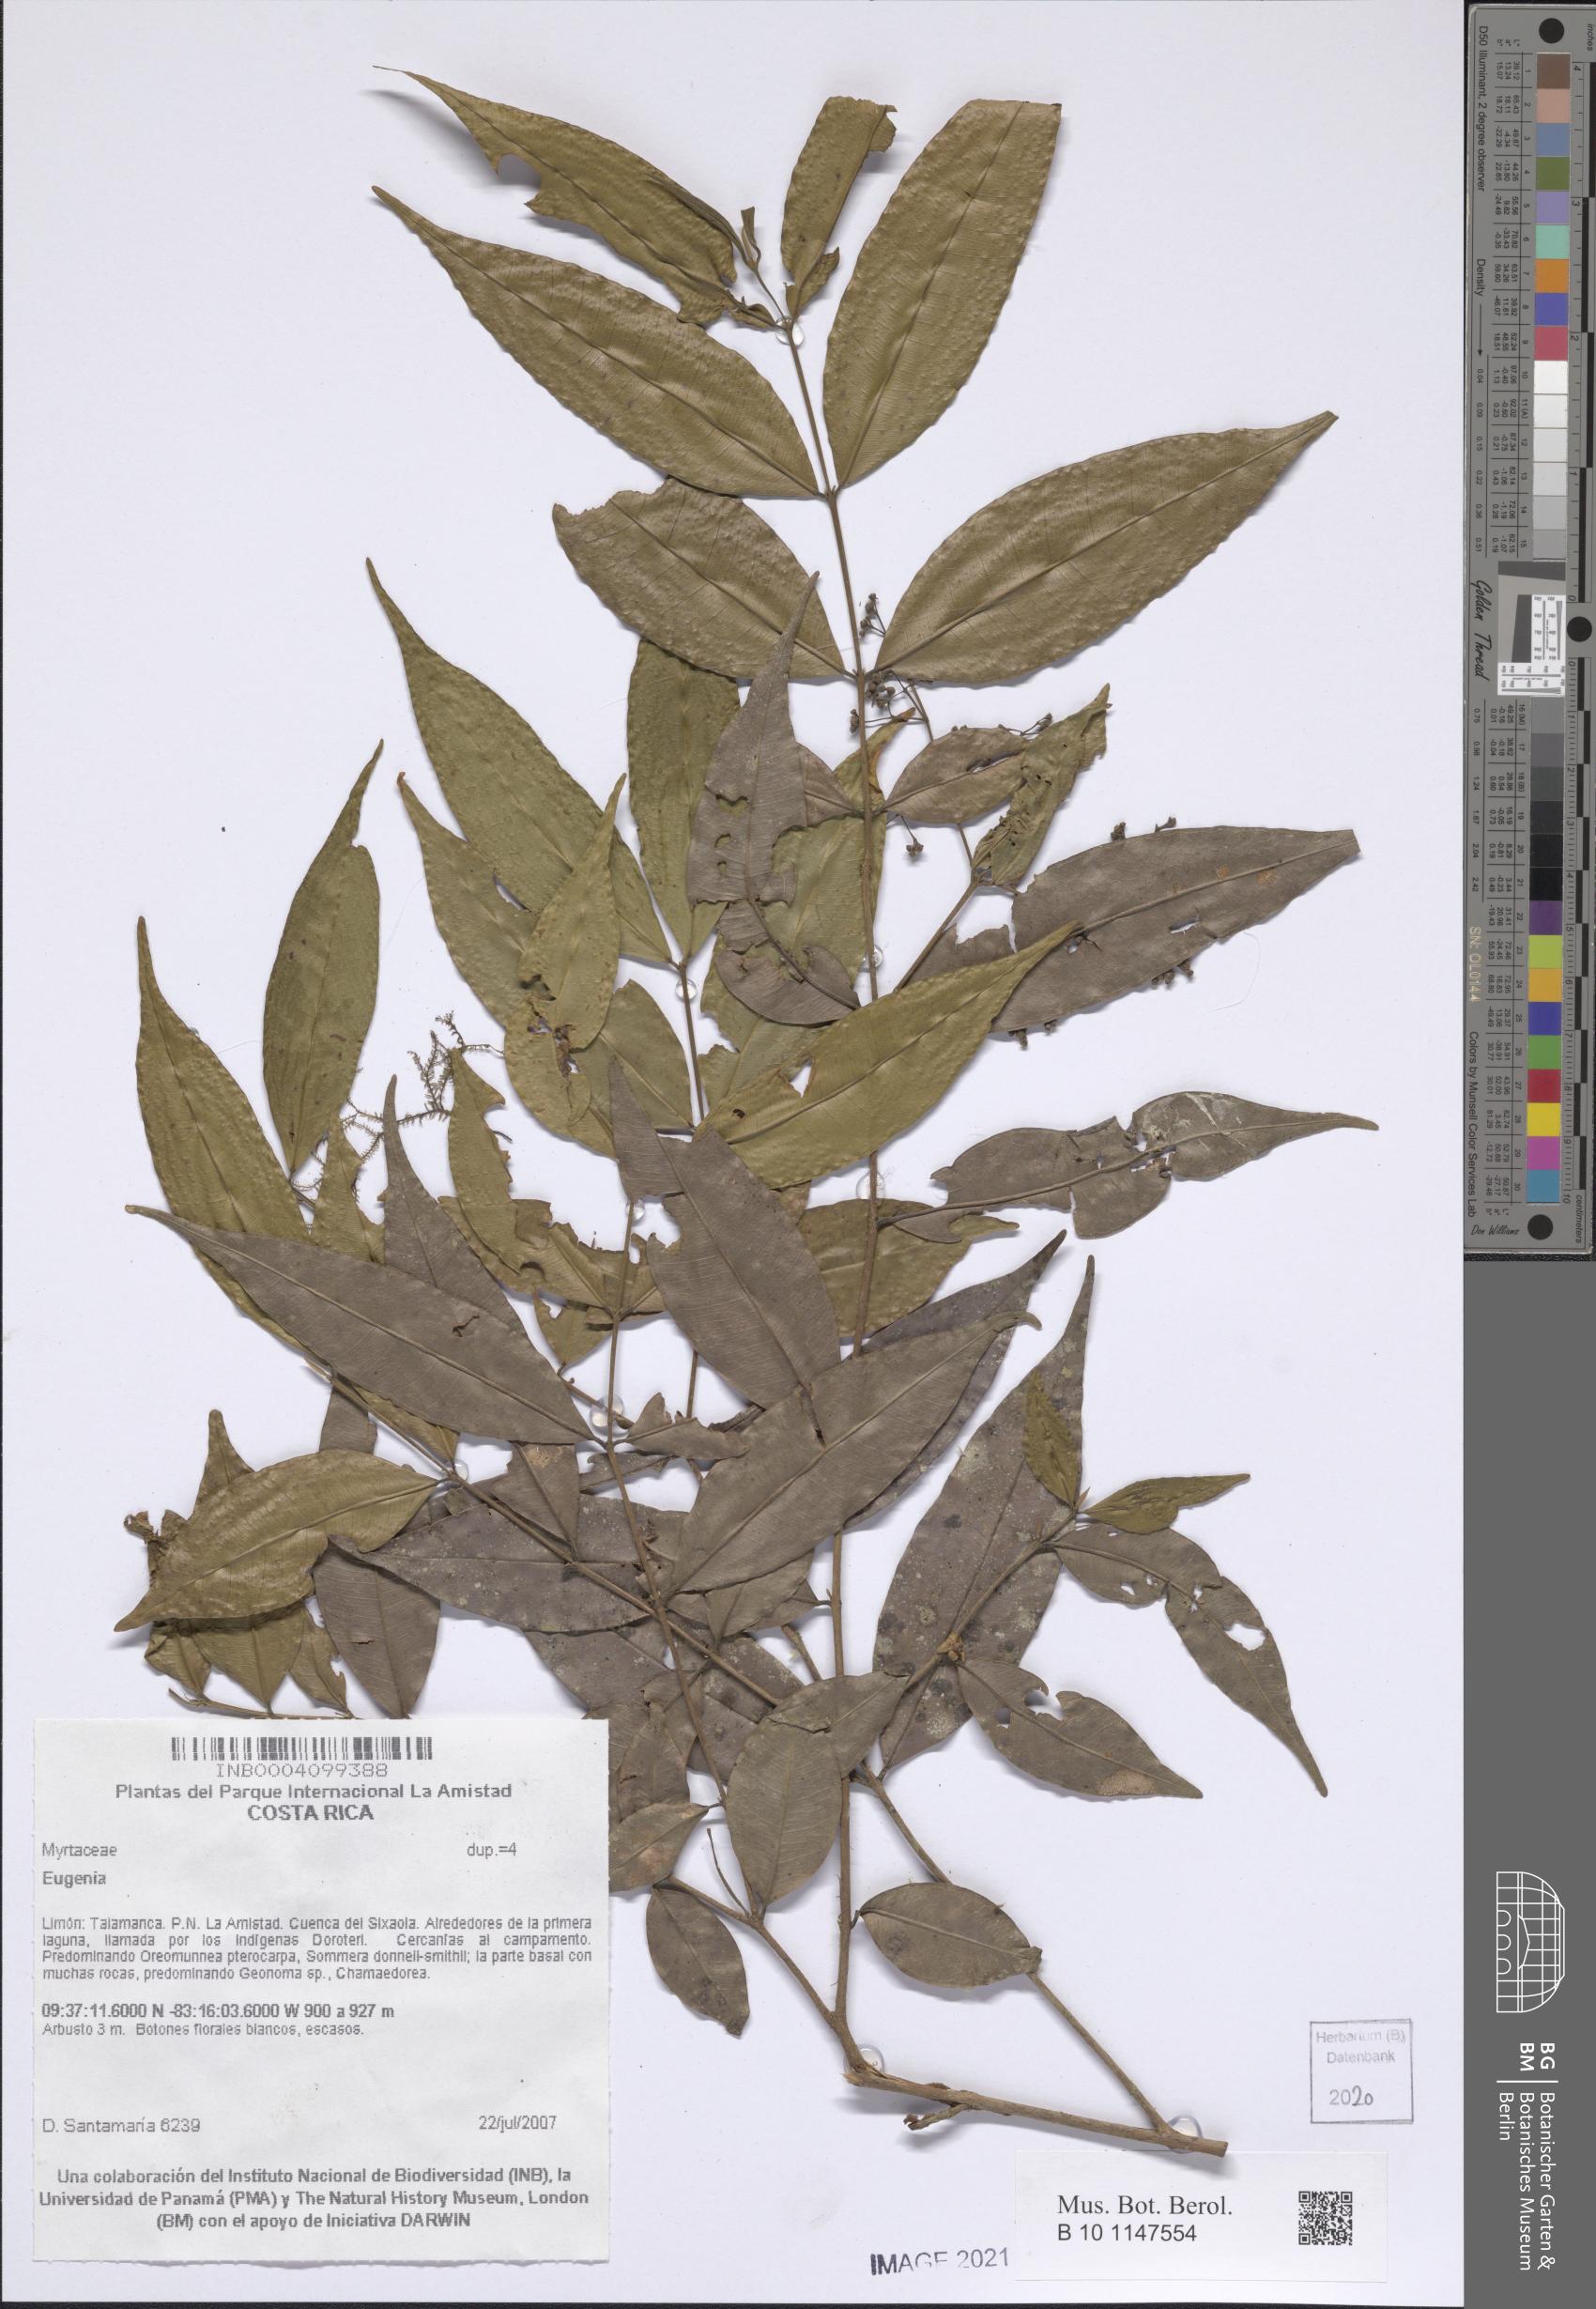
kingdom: Plantae
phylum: Tracheophyta
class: Magnoliopsida
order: Myrtales
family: Myrtaceae
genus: Eugenia
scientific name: Eugenia
